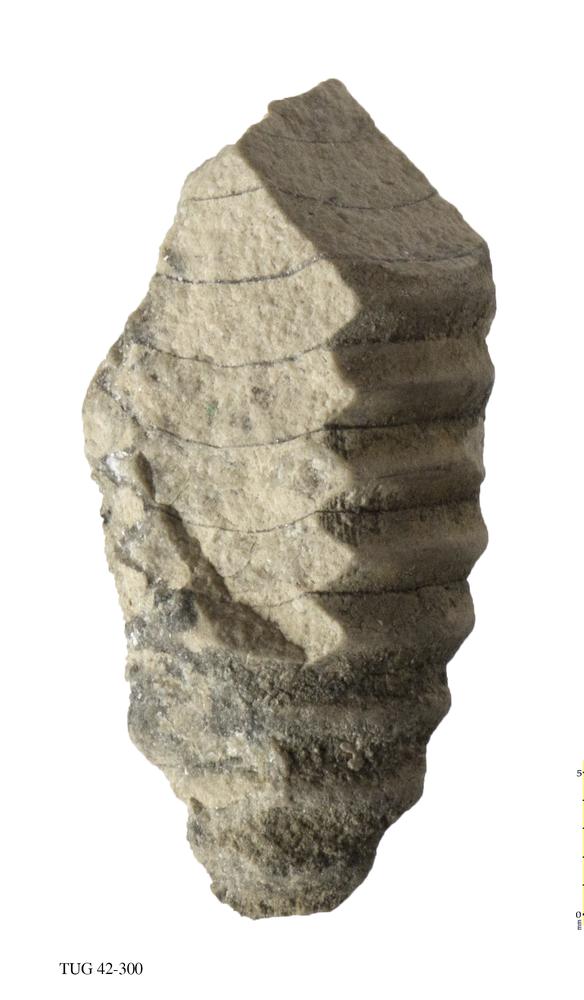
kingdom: Animalia
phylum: Mollusca
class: Cephalopoda
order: Orthocerida
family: Orthoceratidae
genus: Orthoceras
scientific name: Orthoceras
